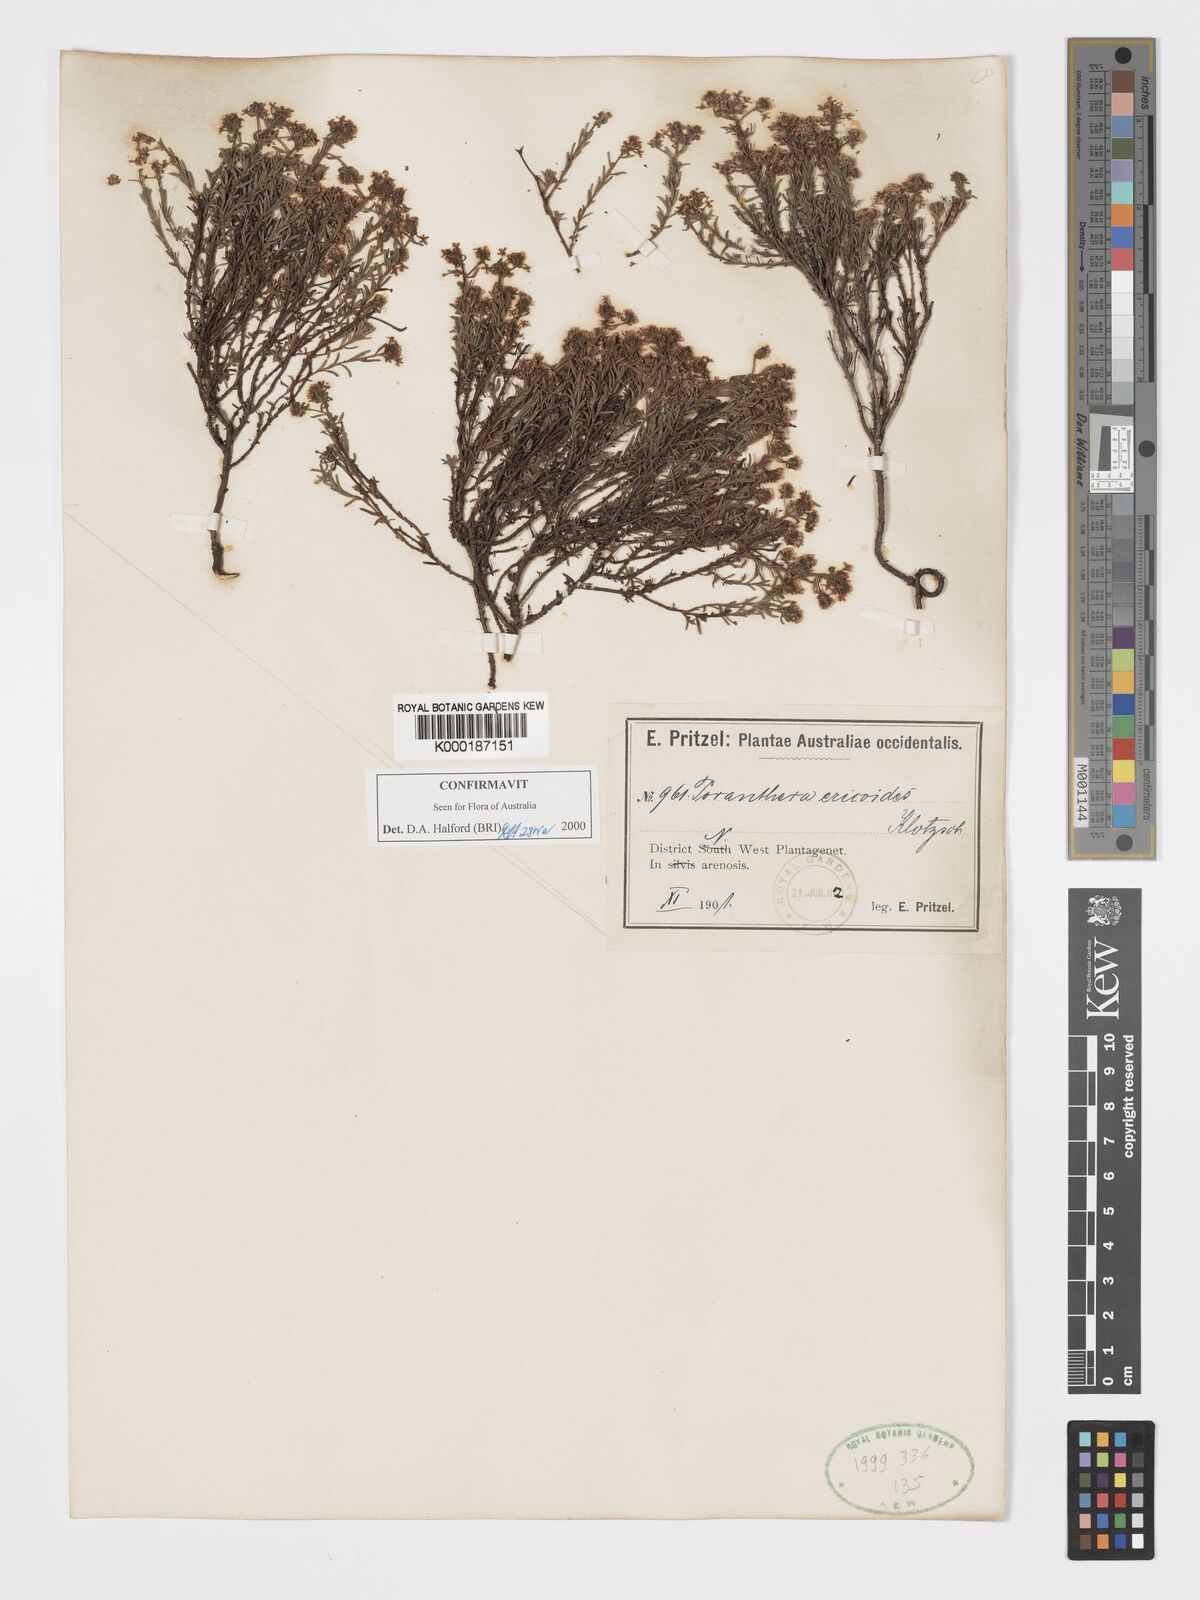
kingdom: Plantae
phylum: Tracheophyta
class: Magnoliopsida
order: Malpighiales
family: Phyllanthaceae
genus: Poranthera
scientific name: Poranthera ericoides
